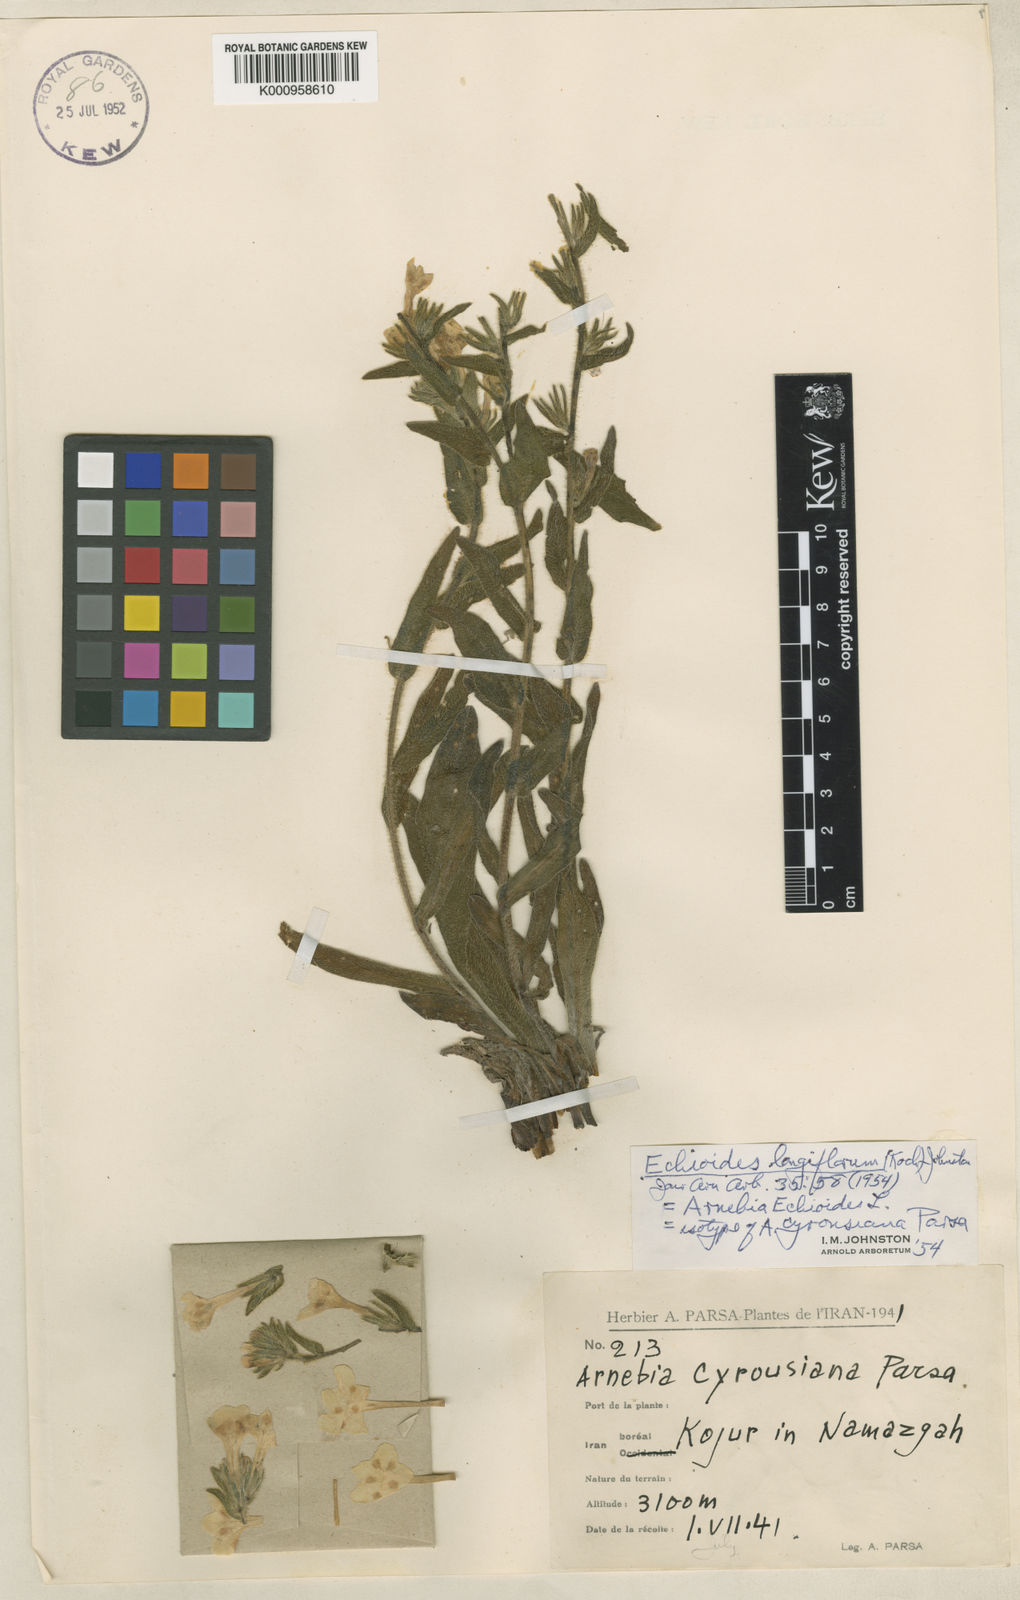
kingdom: Plantae
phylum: Tracheophyta
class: Magnoliopsida
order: Boraginales
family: Boraginaceae
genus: Huynhia
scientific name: Huynhia pulchra
